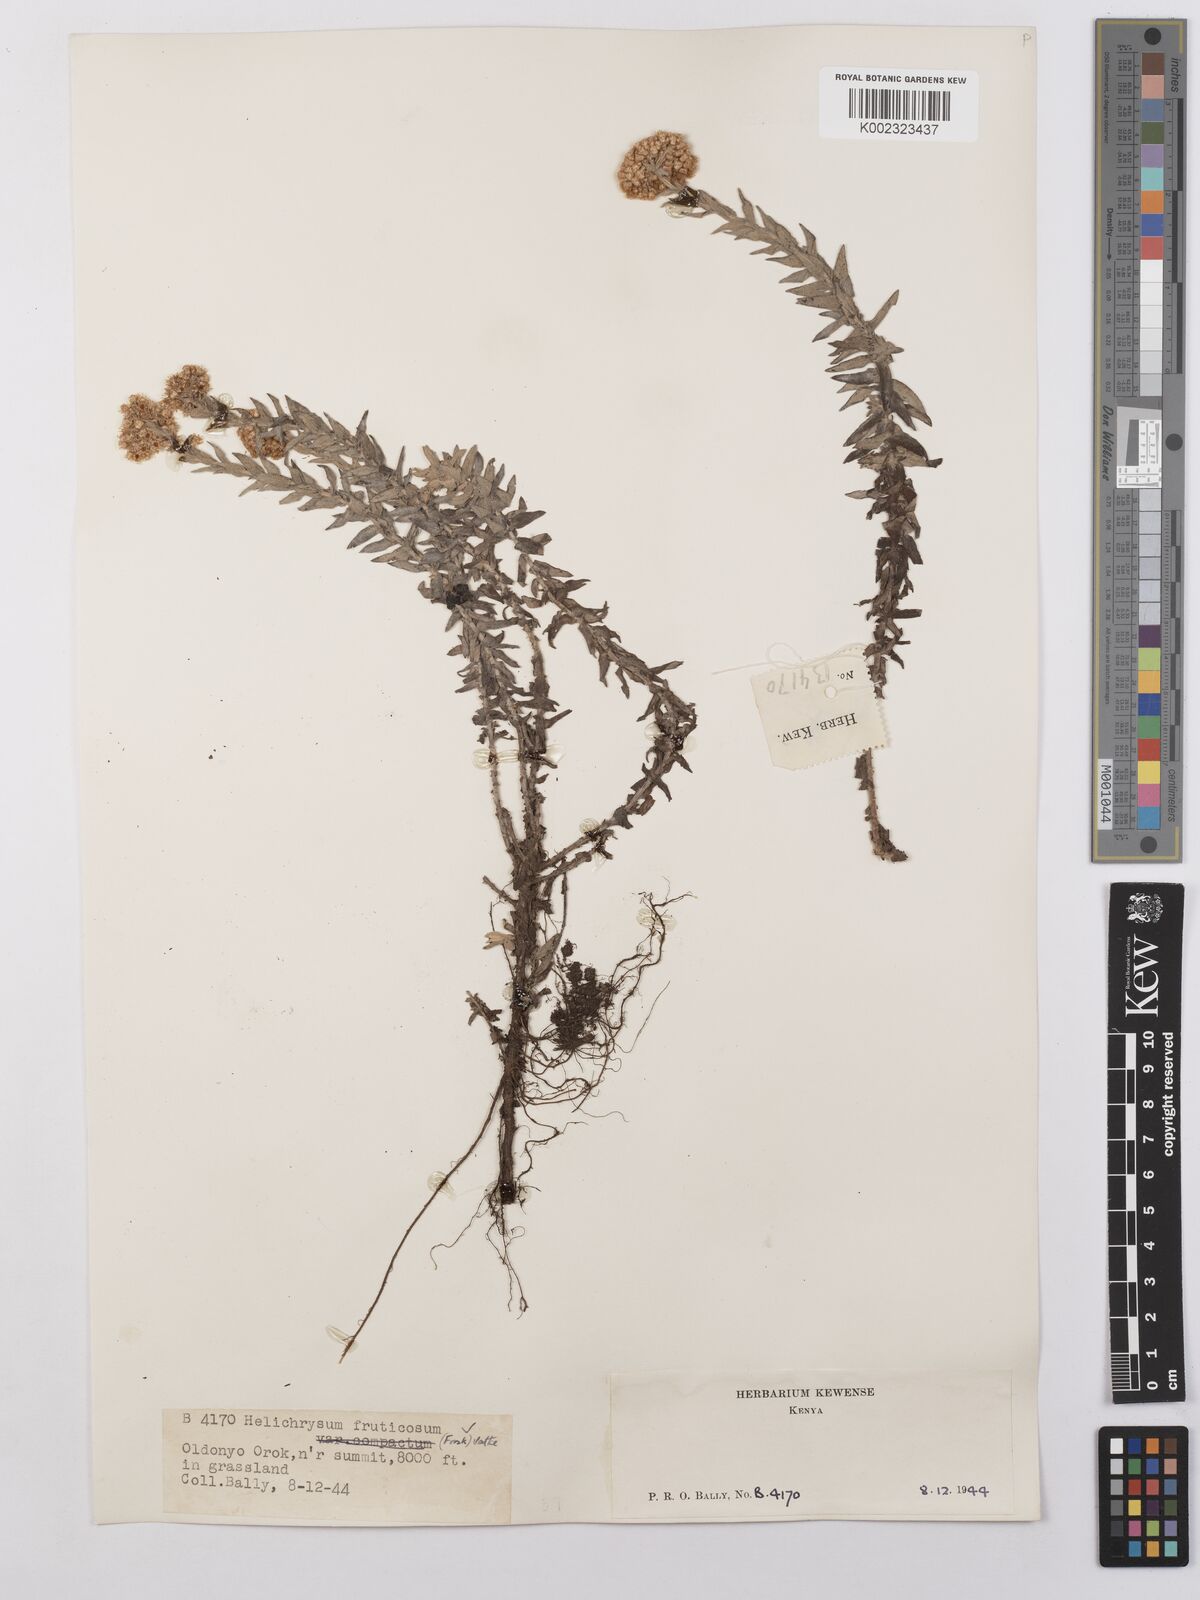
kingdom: Plantae
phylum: Tracheophyta
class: Magnoliopsida
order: Asterales
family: Asteraceae
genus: Helichrysum
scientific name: Helichrysum forskahlii
